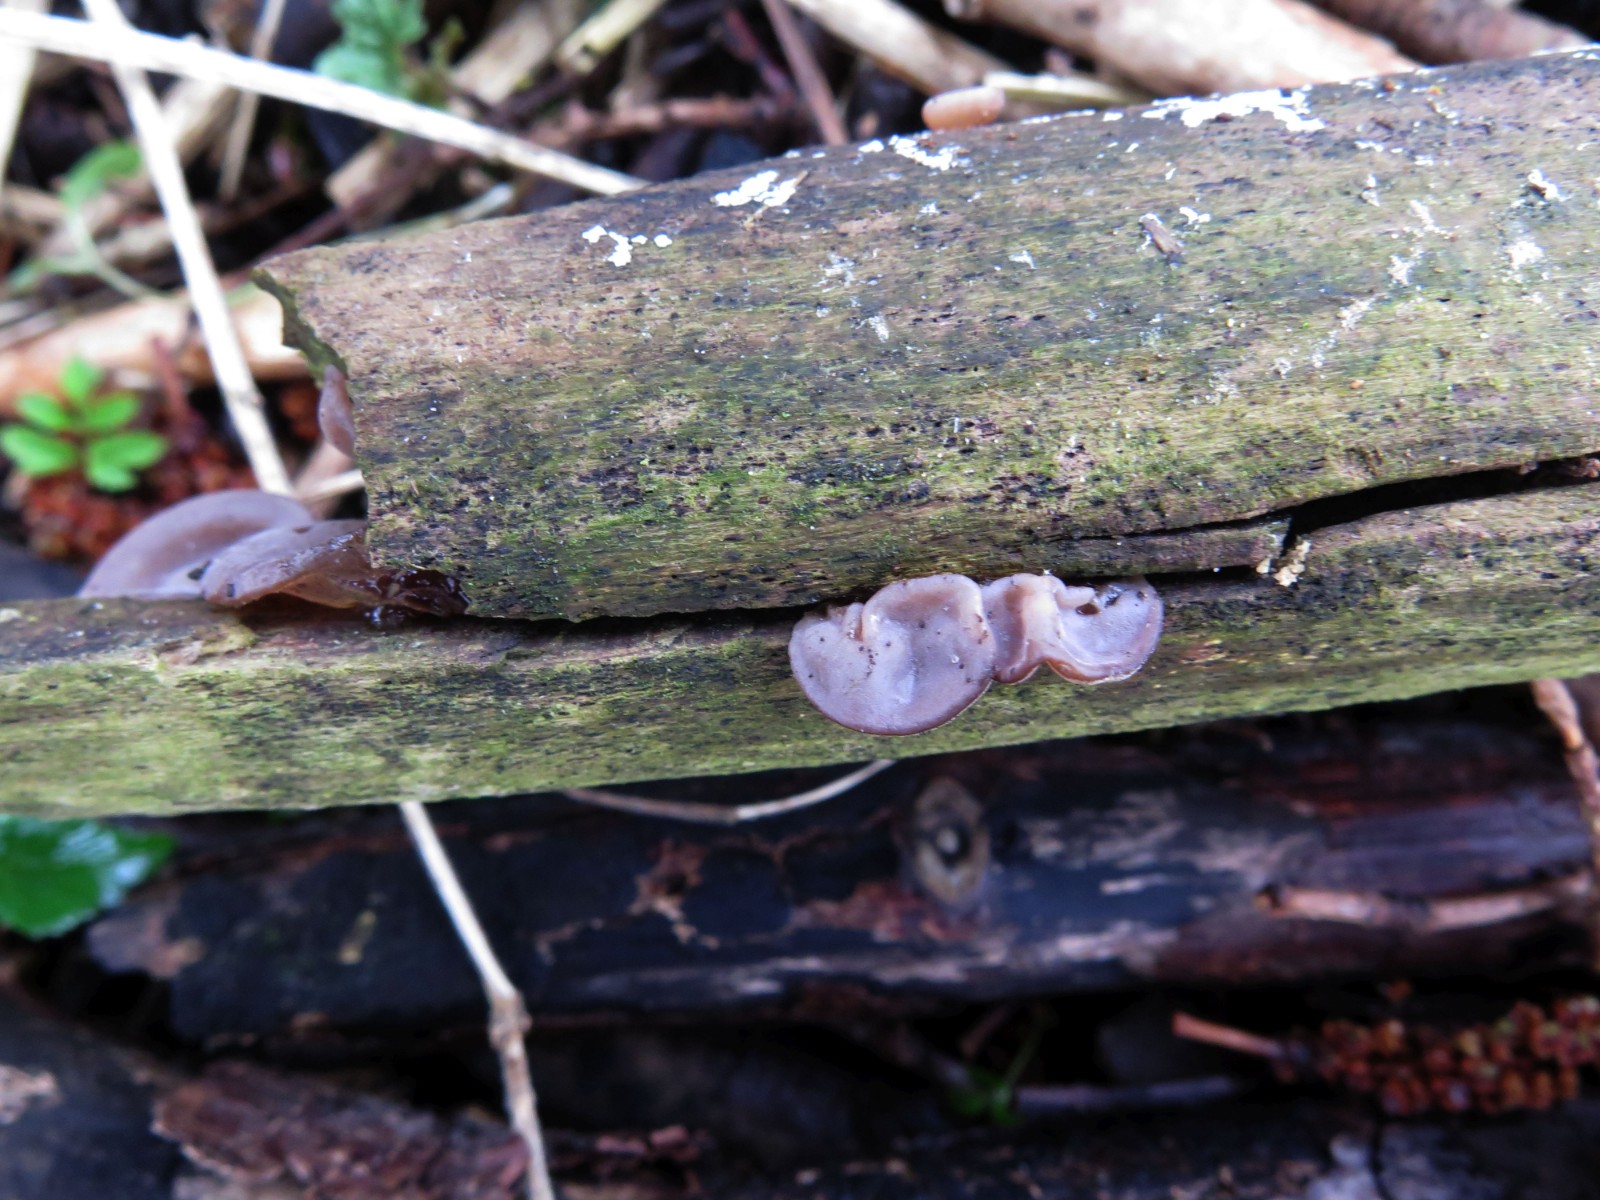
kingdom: Fungi
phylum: Basidiomycota
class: Agaricomycetes
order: Auriculariales
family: Auriculariaceae
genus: Auricularia
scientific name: Auricularia auricula-judae
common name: almindelig judasøre
